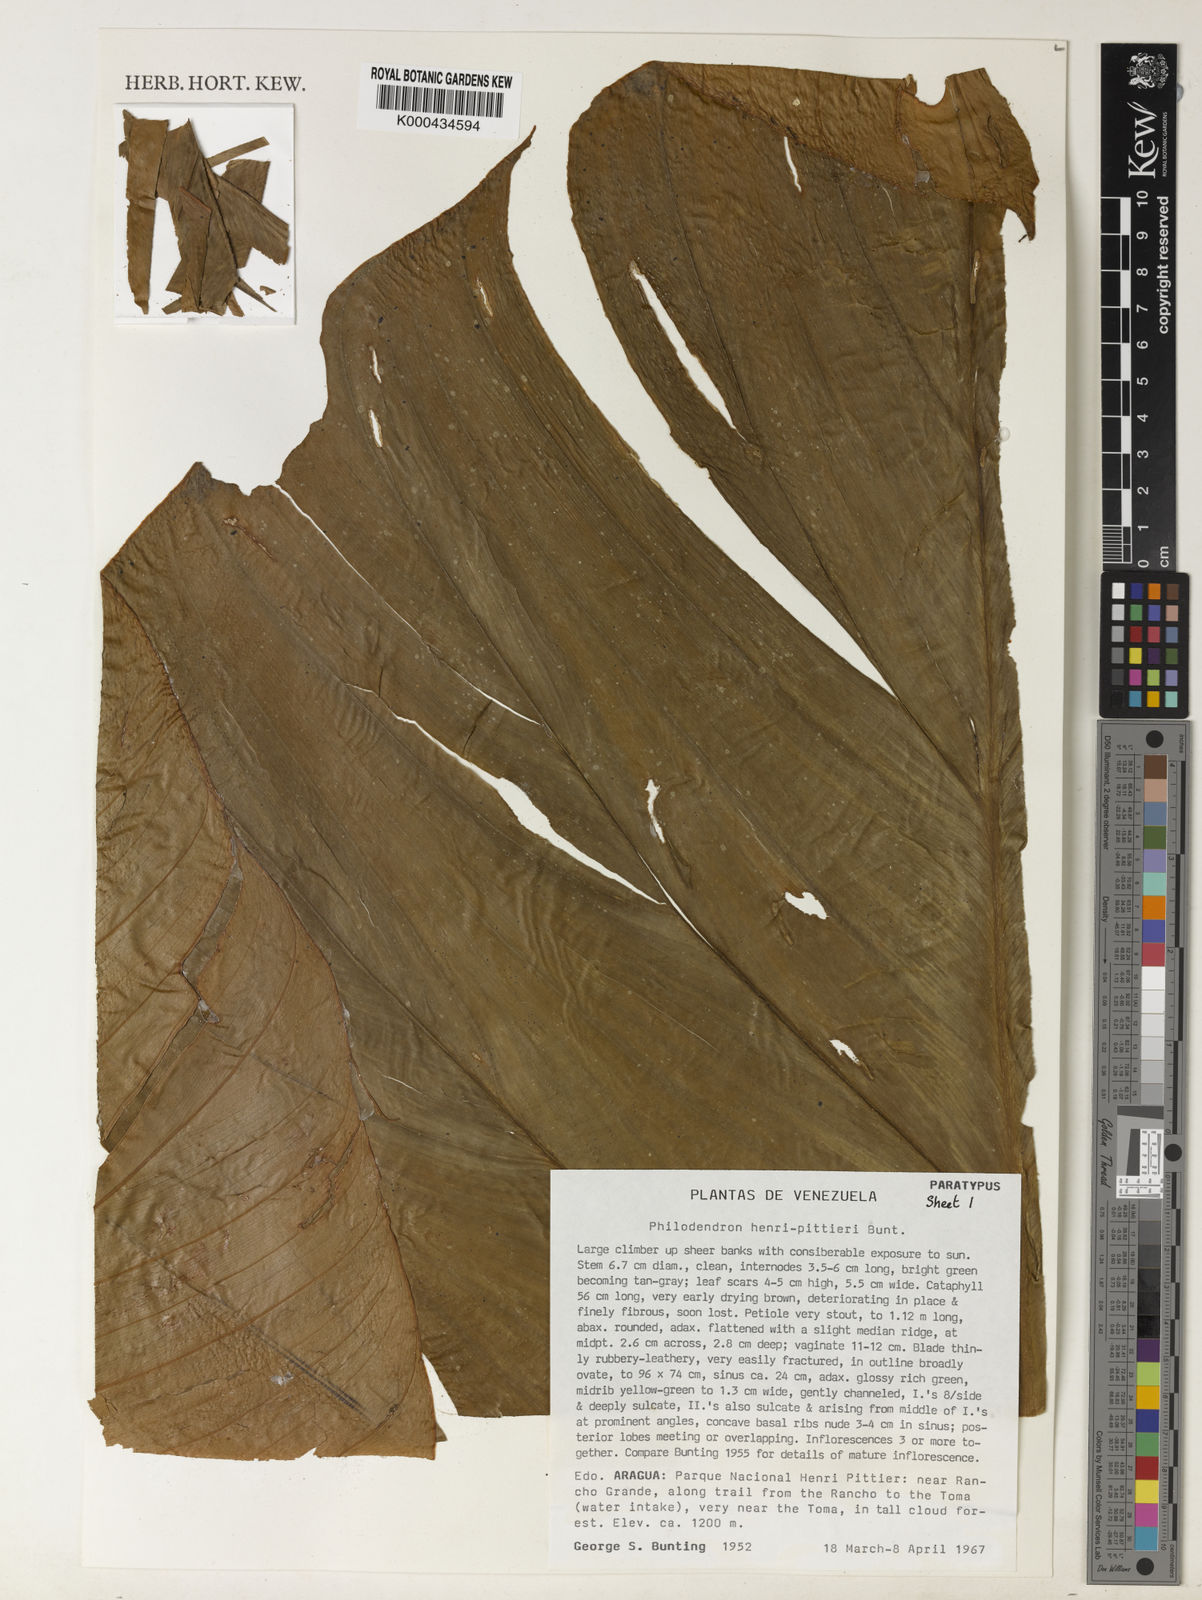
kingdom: Plantae
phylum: Tracheophyta
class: Liliopsida
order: Alismatales
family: Araceae
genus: Philodendron
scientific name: Philodendron henry-pittieri
